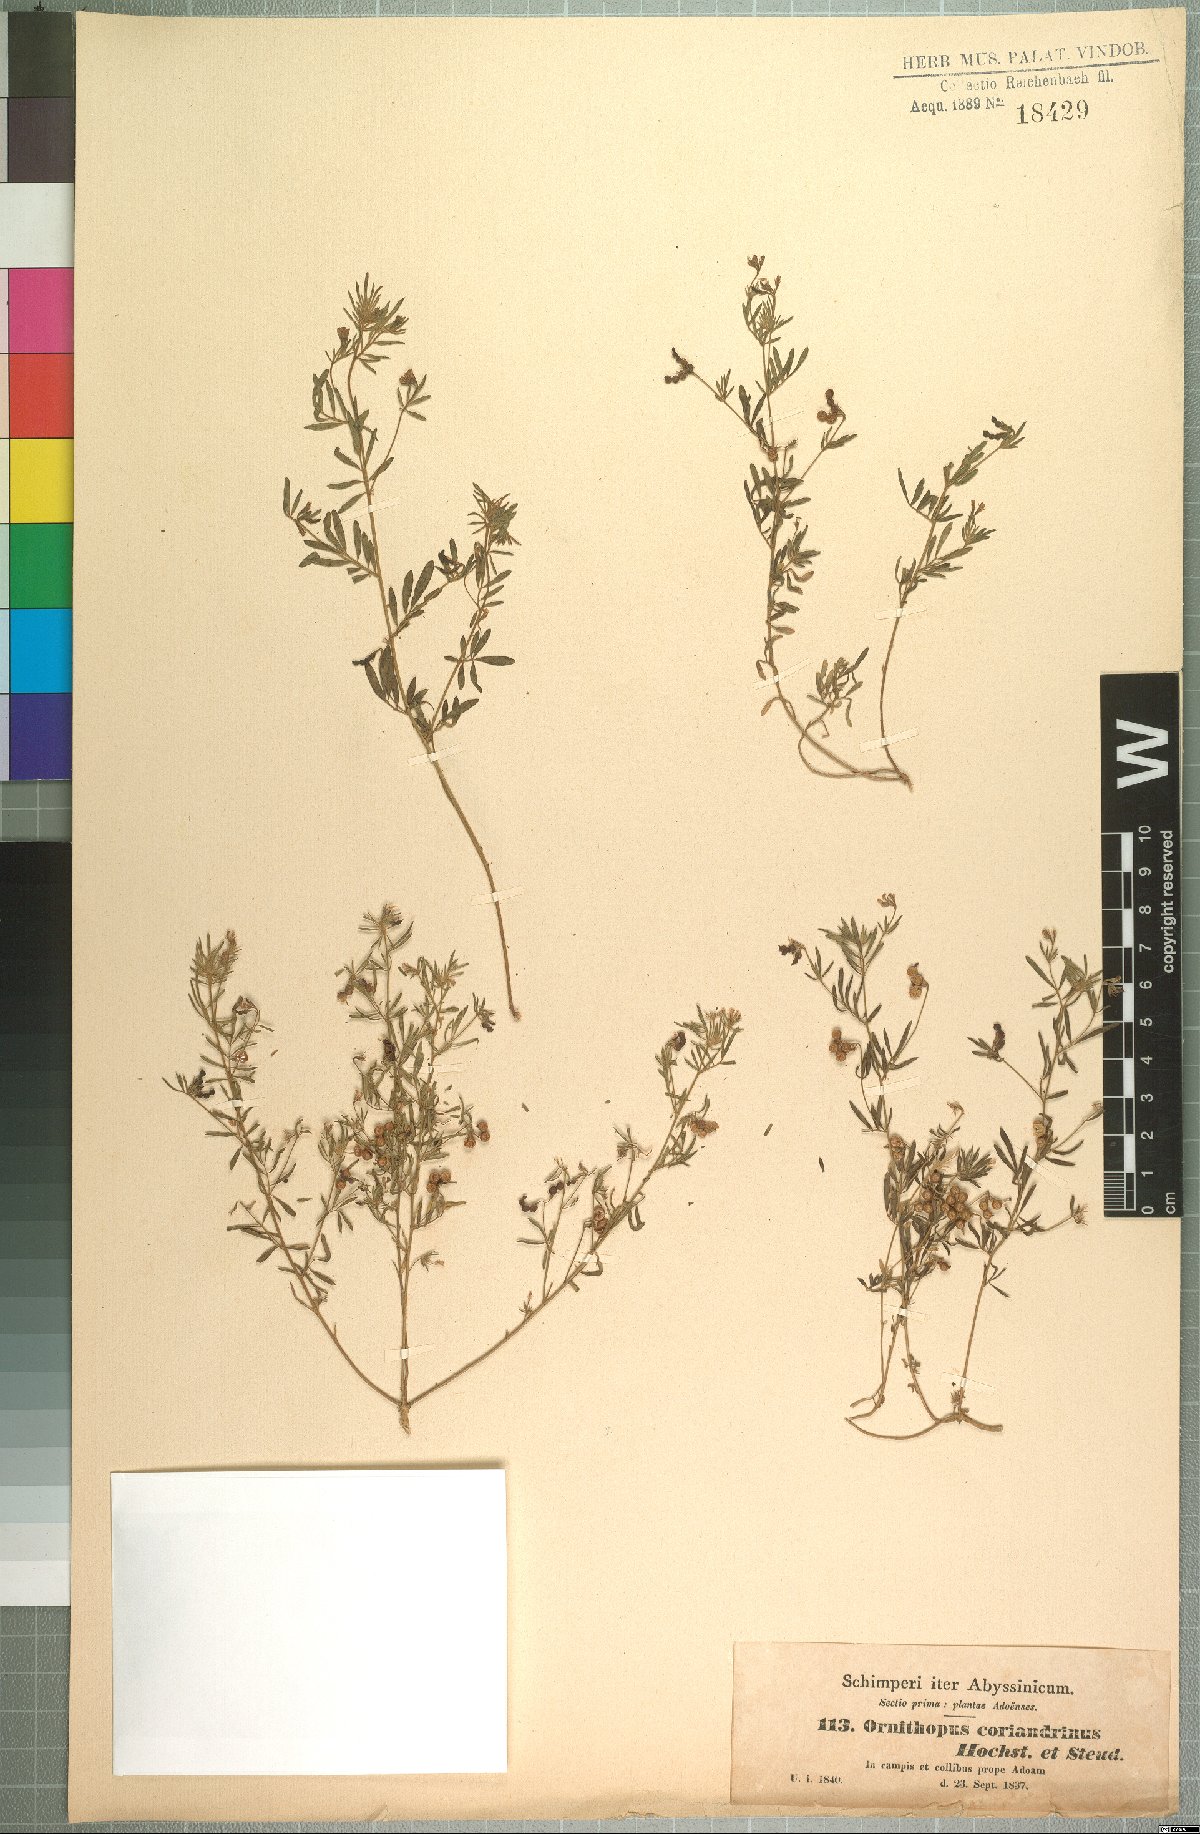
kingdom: Plantae
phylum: Tracheophyta
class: Magnoliopsida
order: Fabales
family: Fabaceae
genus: Antopetitia
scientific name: Antopetitia abyssinica
